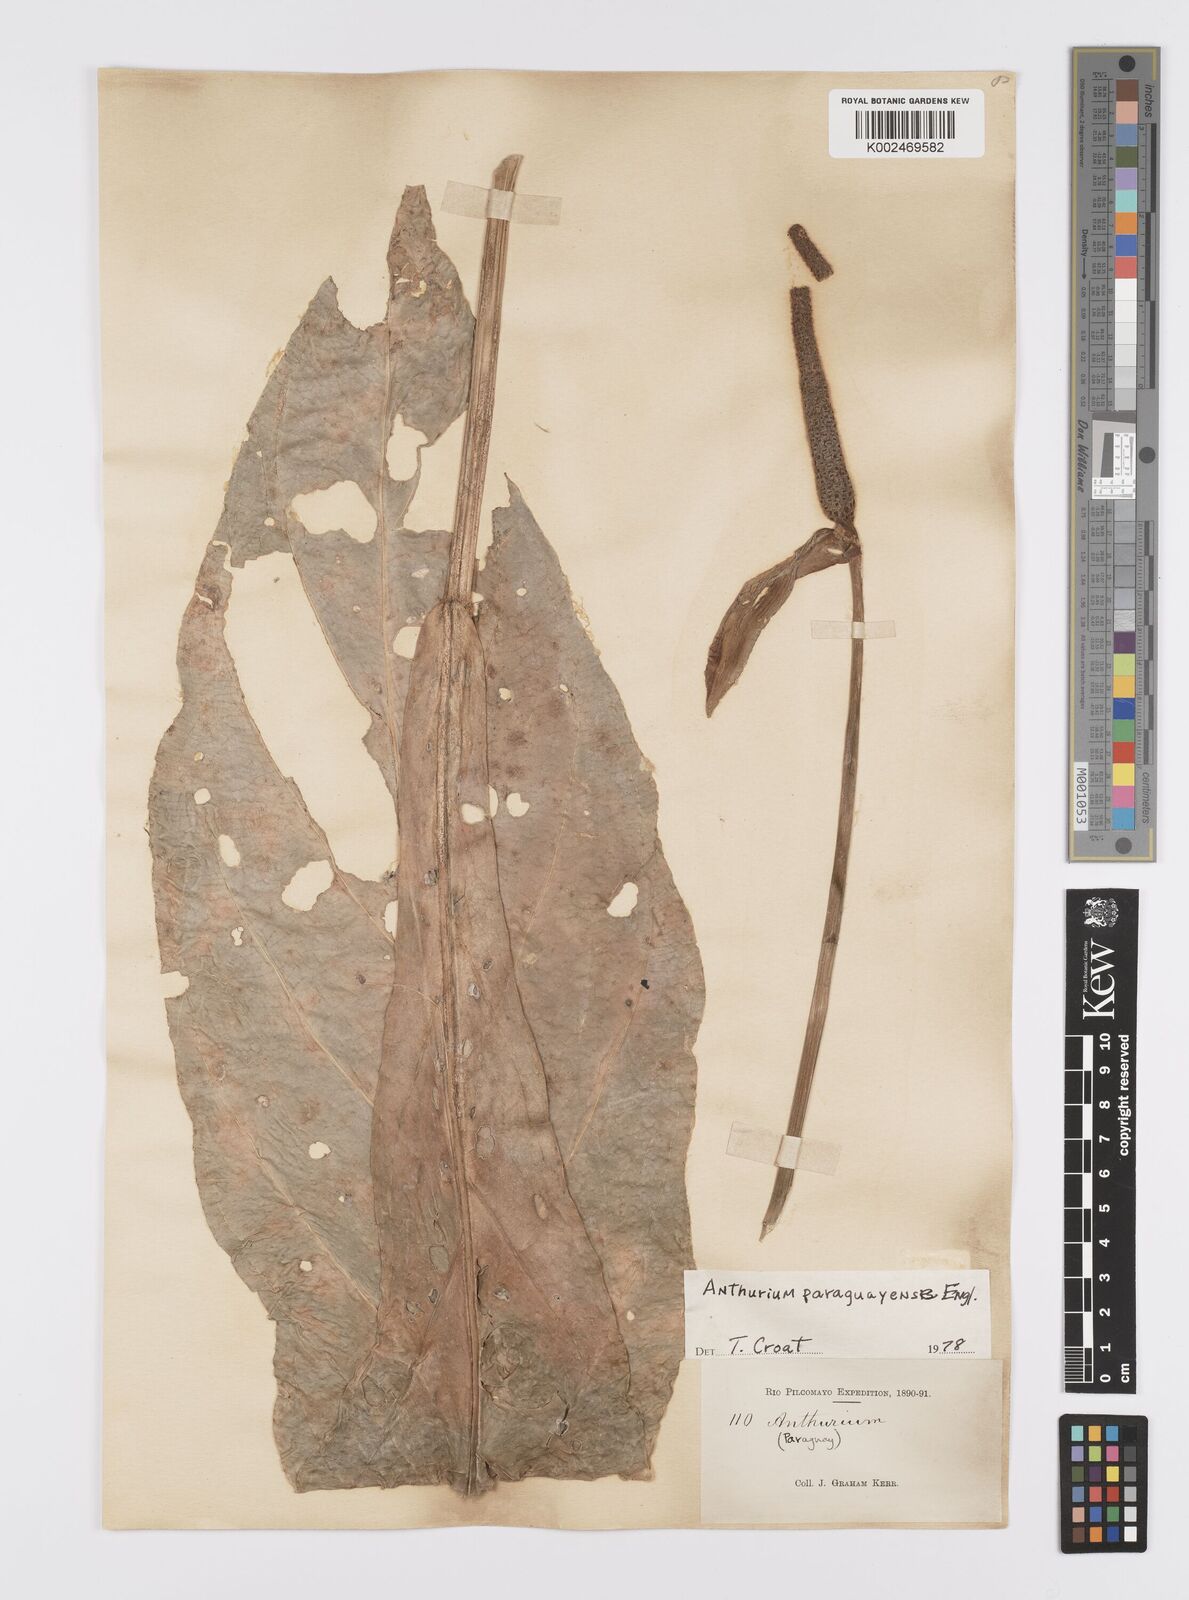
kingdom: Plantae
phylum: Tracheophyta
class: Liliopsida
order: Alismatales
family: Araceae
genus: Anthurium
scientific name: Anthurium paraguayense
